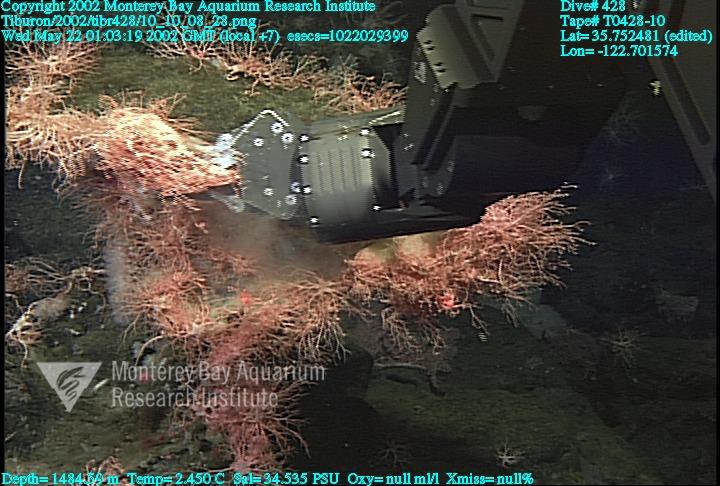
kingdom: Animalia
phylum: Porifera
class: Hexactinellida
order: Sceptrulophora
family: Euretidae
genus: Chonelasma
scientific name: Chonelasma
